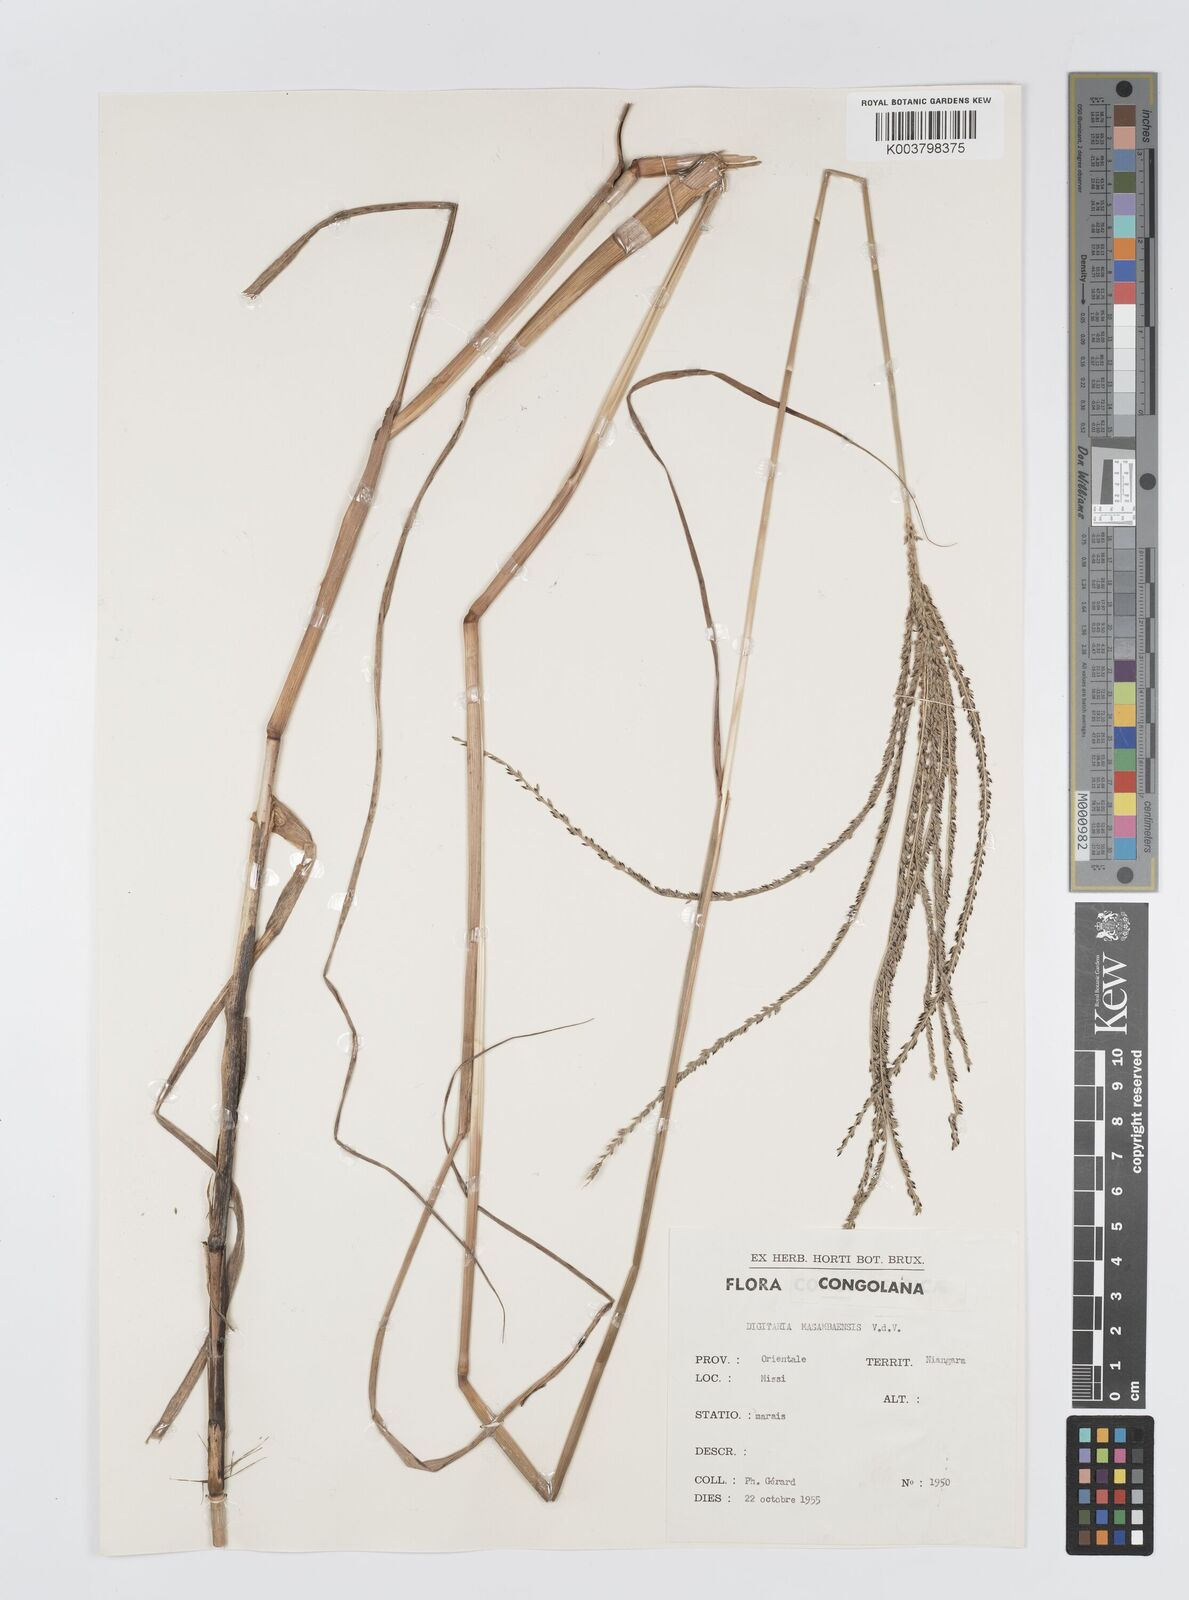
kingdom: Plantae
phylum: Tracheophyta
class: Liliopsida
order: Poales
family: Poaceae
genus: Digitaria
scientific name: Digitaria atrofusca
